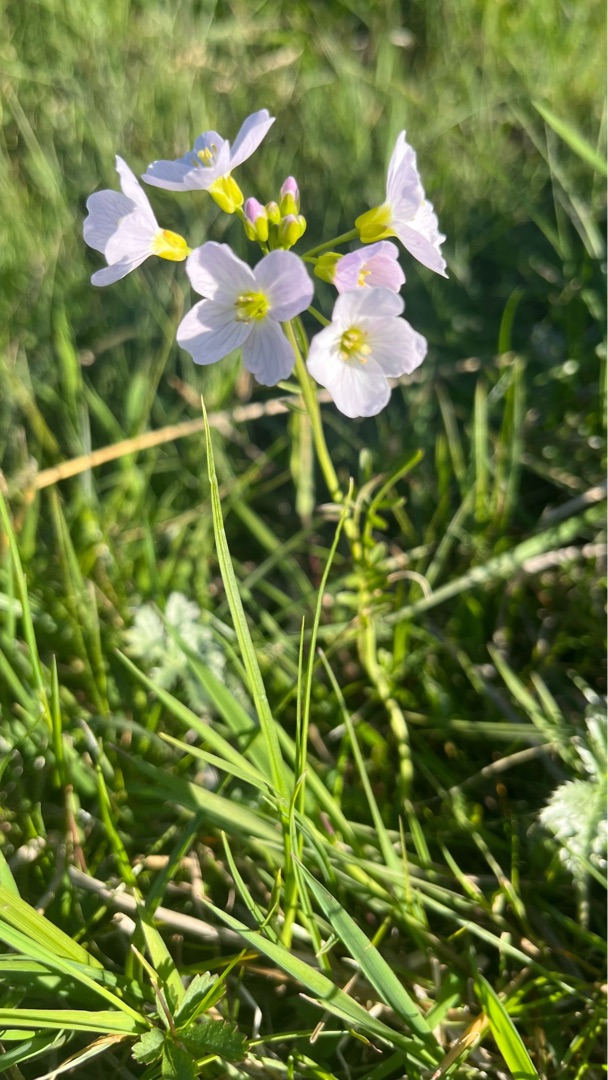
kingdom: Plantae
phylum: Tracheophyta
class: Magnoliopsida
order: Brassicales
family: Brassicaceae
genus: Cardamine
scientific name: Cardamine pratensis
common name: Engkarse
